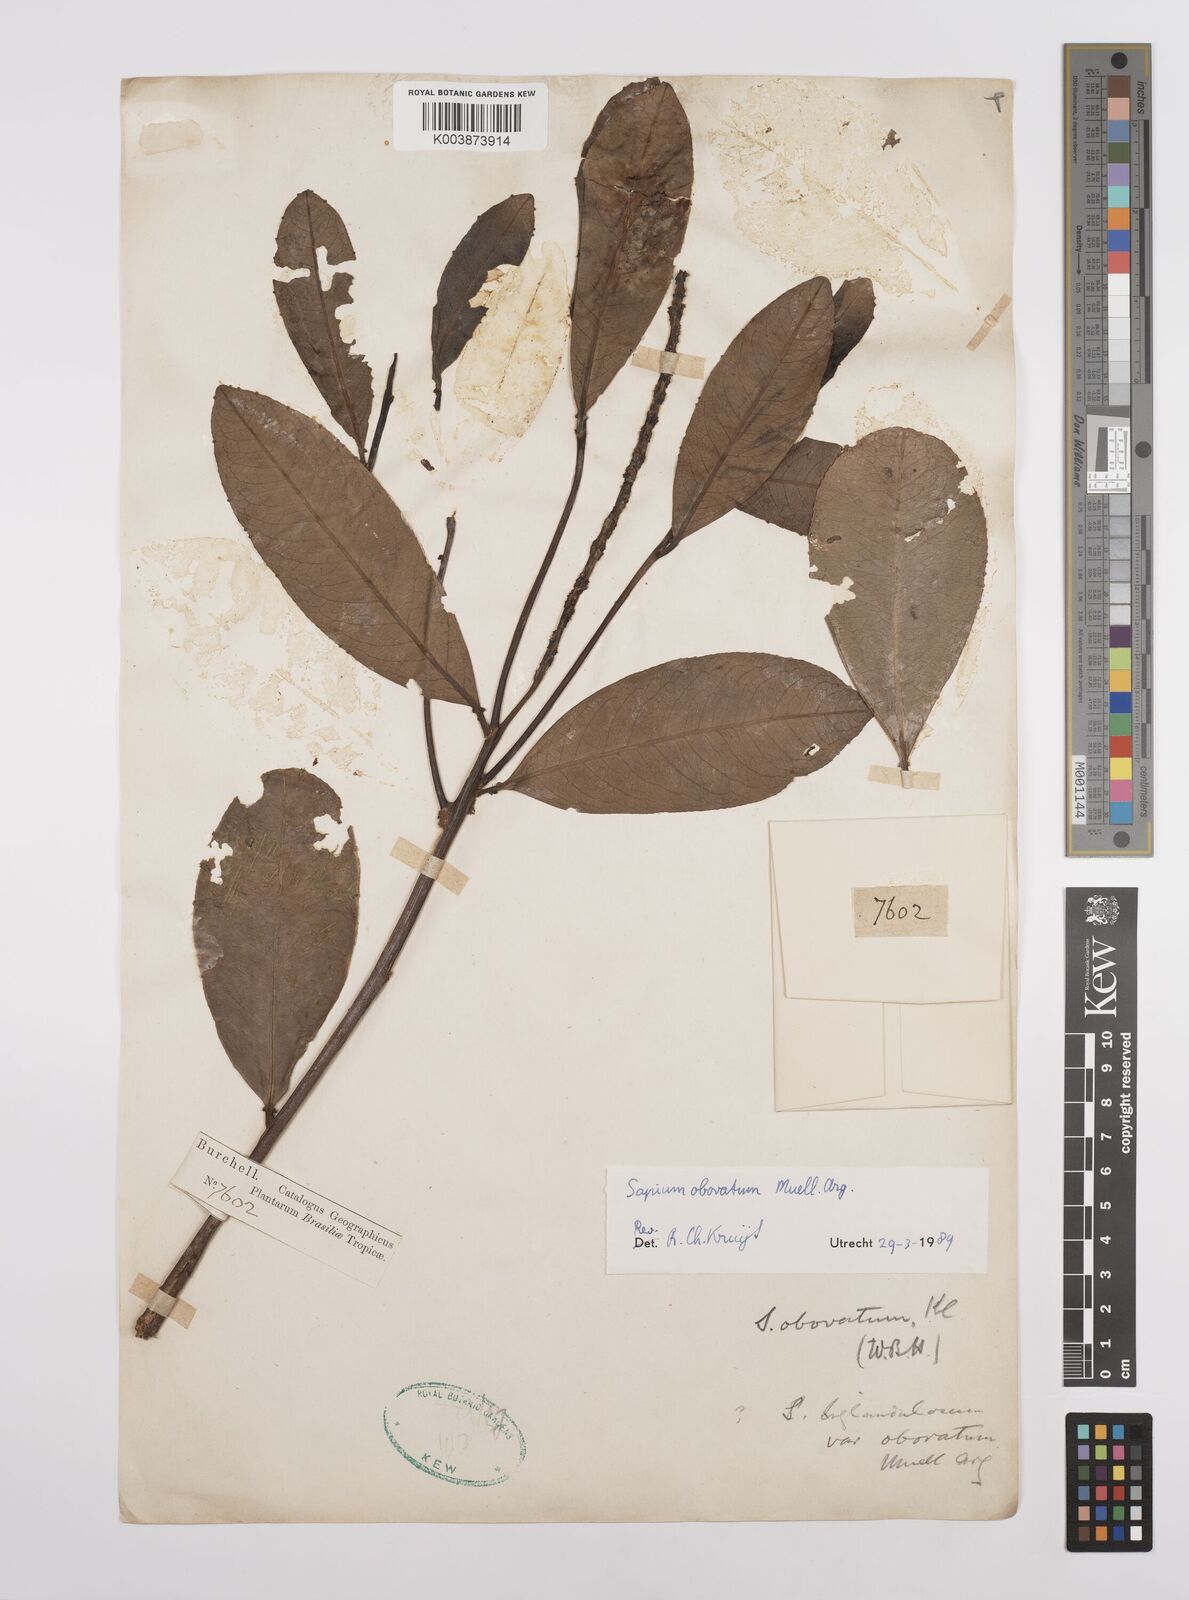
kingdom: Plantae
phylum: Tracheophyta
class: Magnoliopsida
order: Malpighiales
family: Euphorbiaceae
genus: Sapium
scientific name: Sapium obovatum
